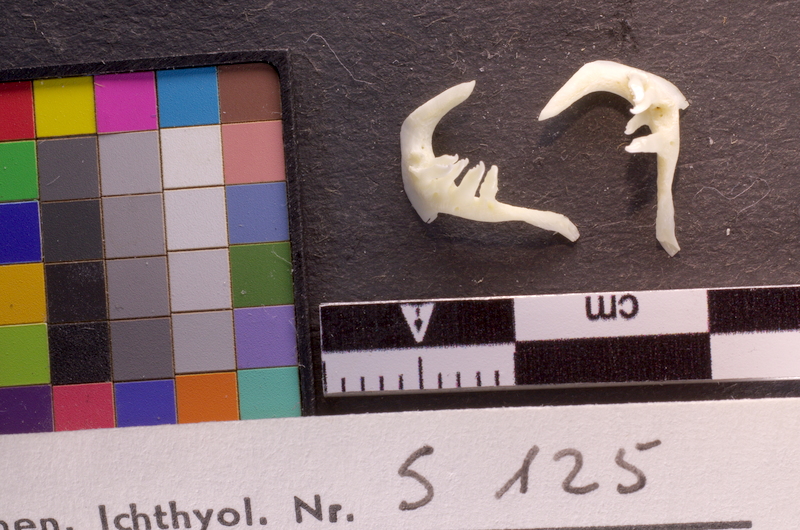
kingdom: Animalia
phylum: Chordata
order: Cypriniformes
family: Cyprinidae
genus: Squalius
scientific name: Squalius cephalus
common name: Chub
